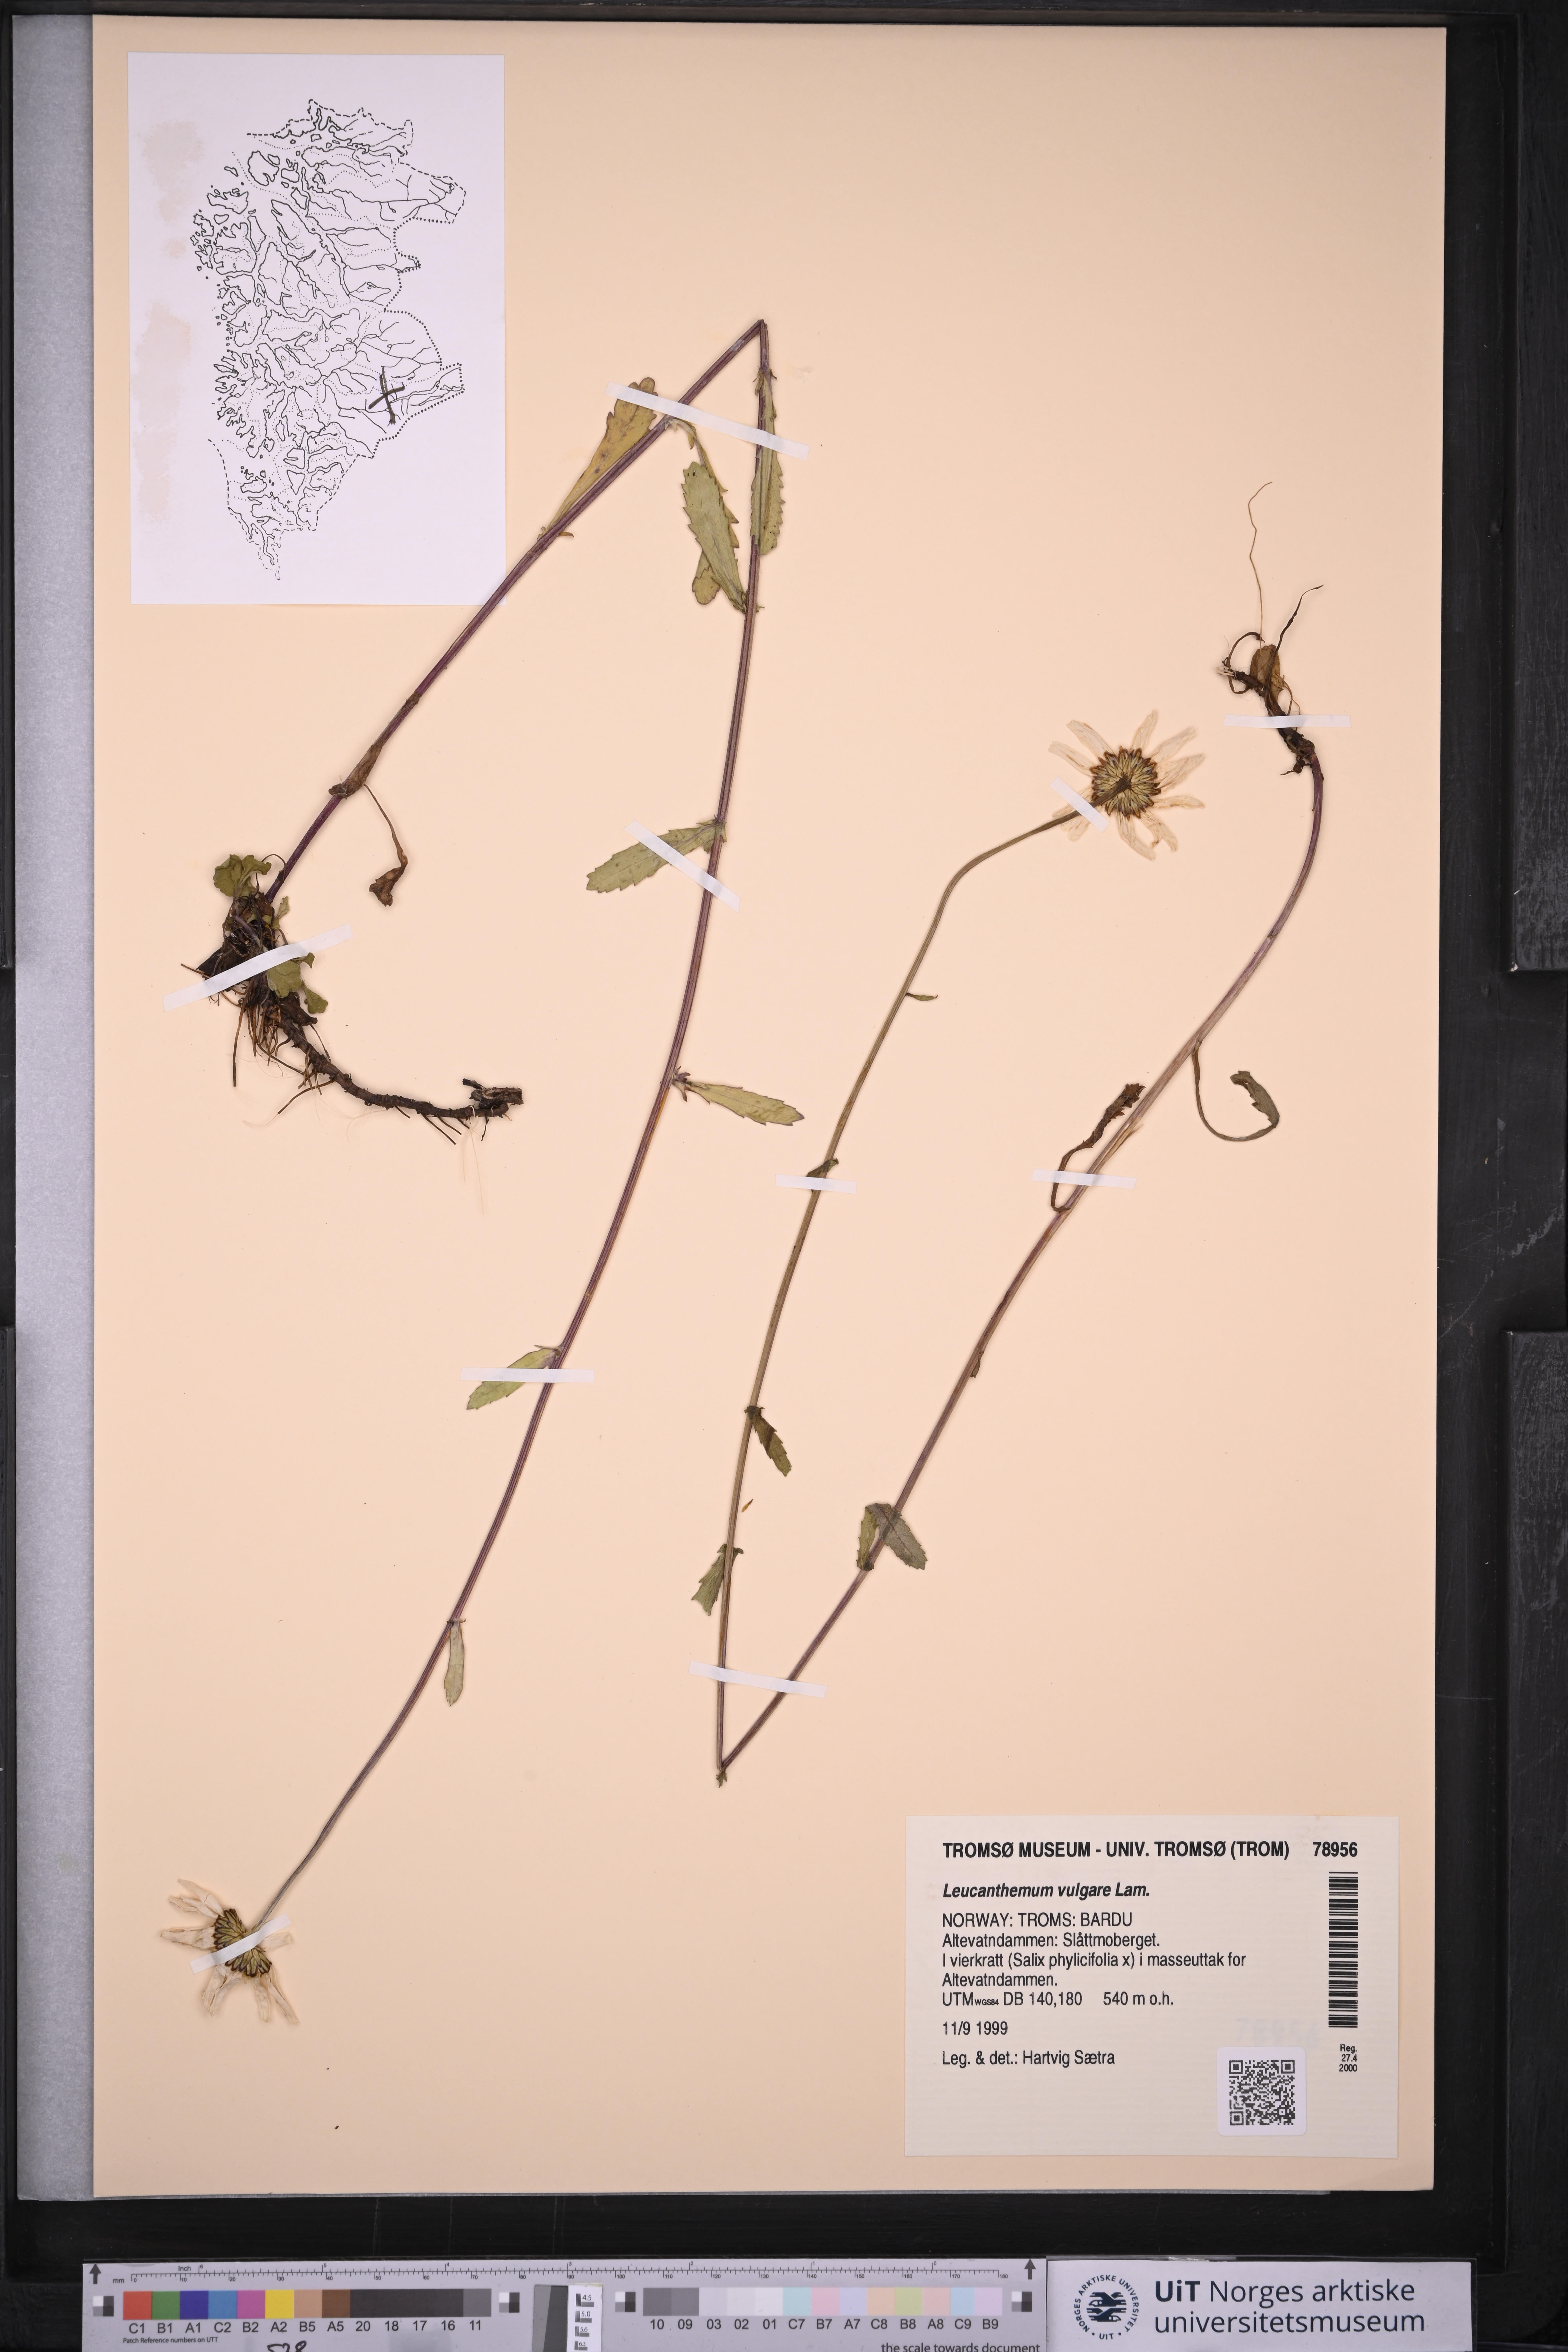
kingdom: Plantae
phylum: Tracheophyta
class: Magnoliopsida
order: Asterales
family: Asteraceae
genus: Leucanthemum
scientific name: Leucanthemum vulgare
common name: Oxeye daisy
